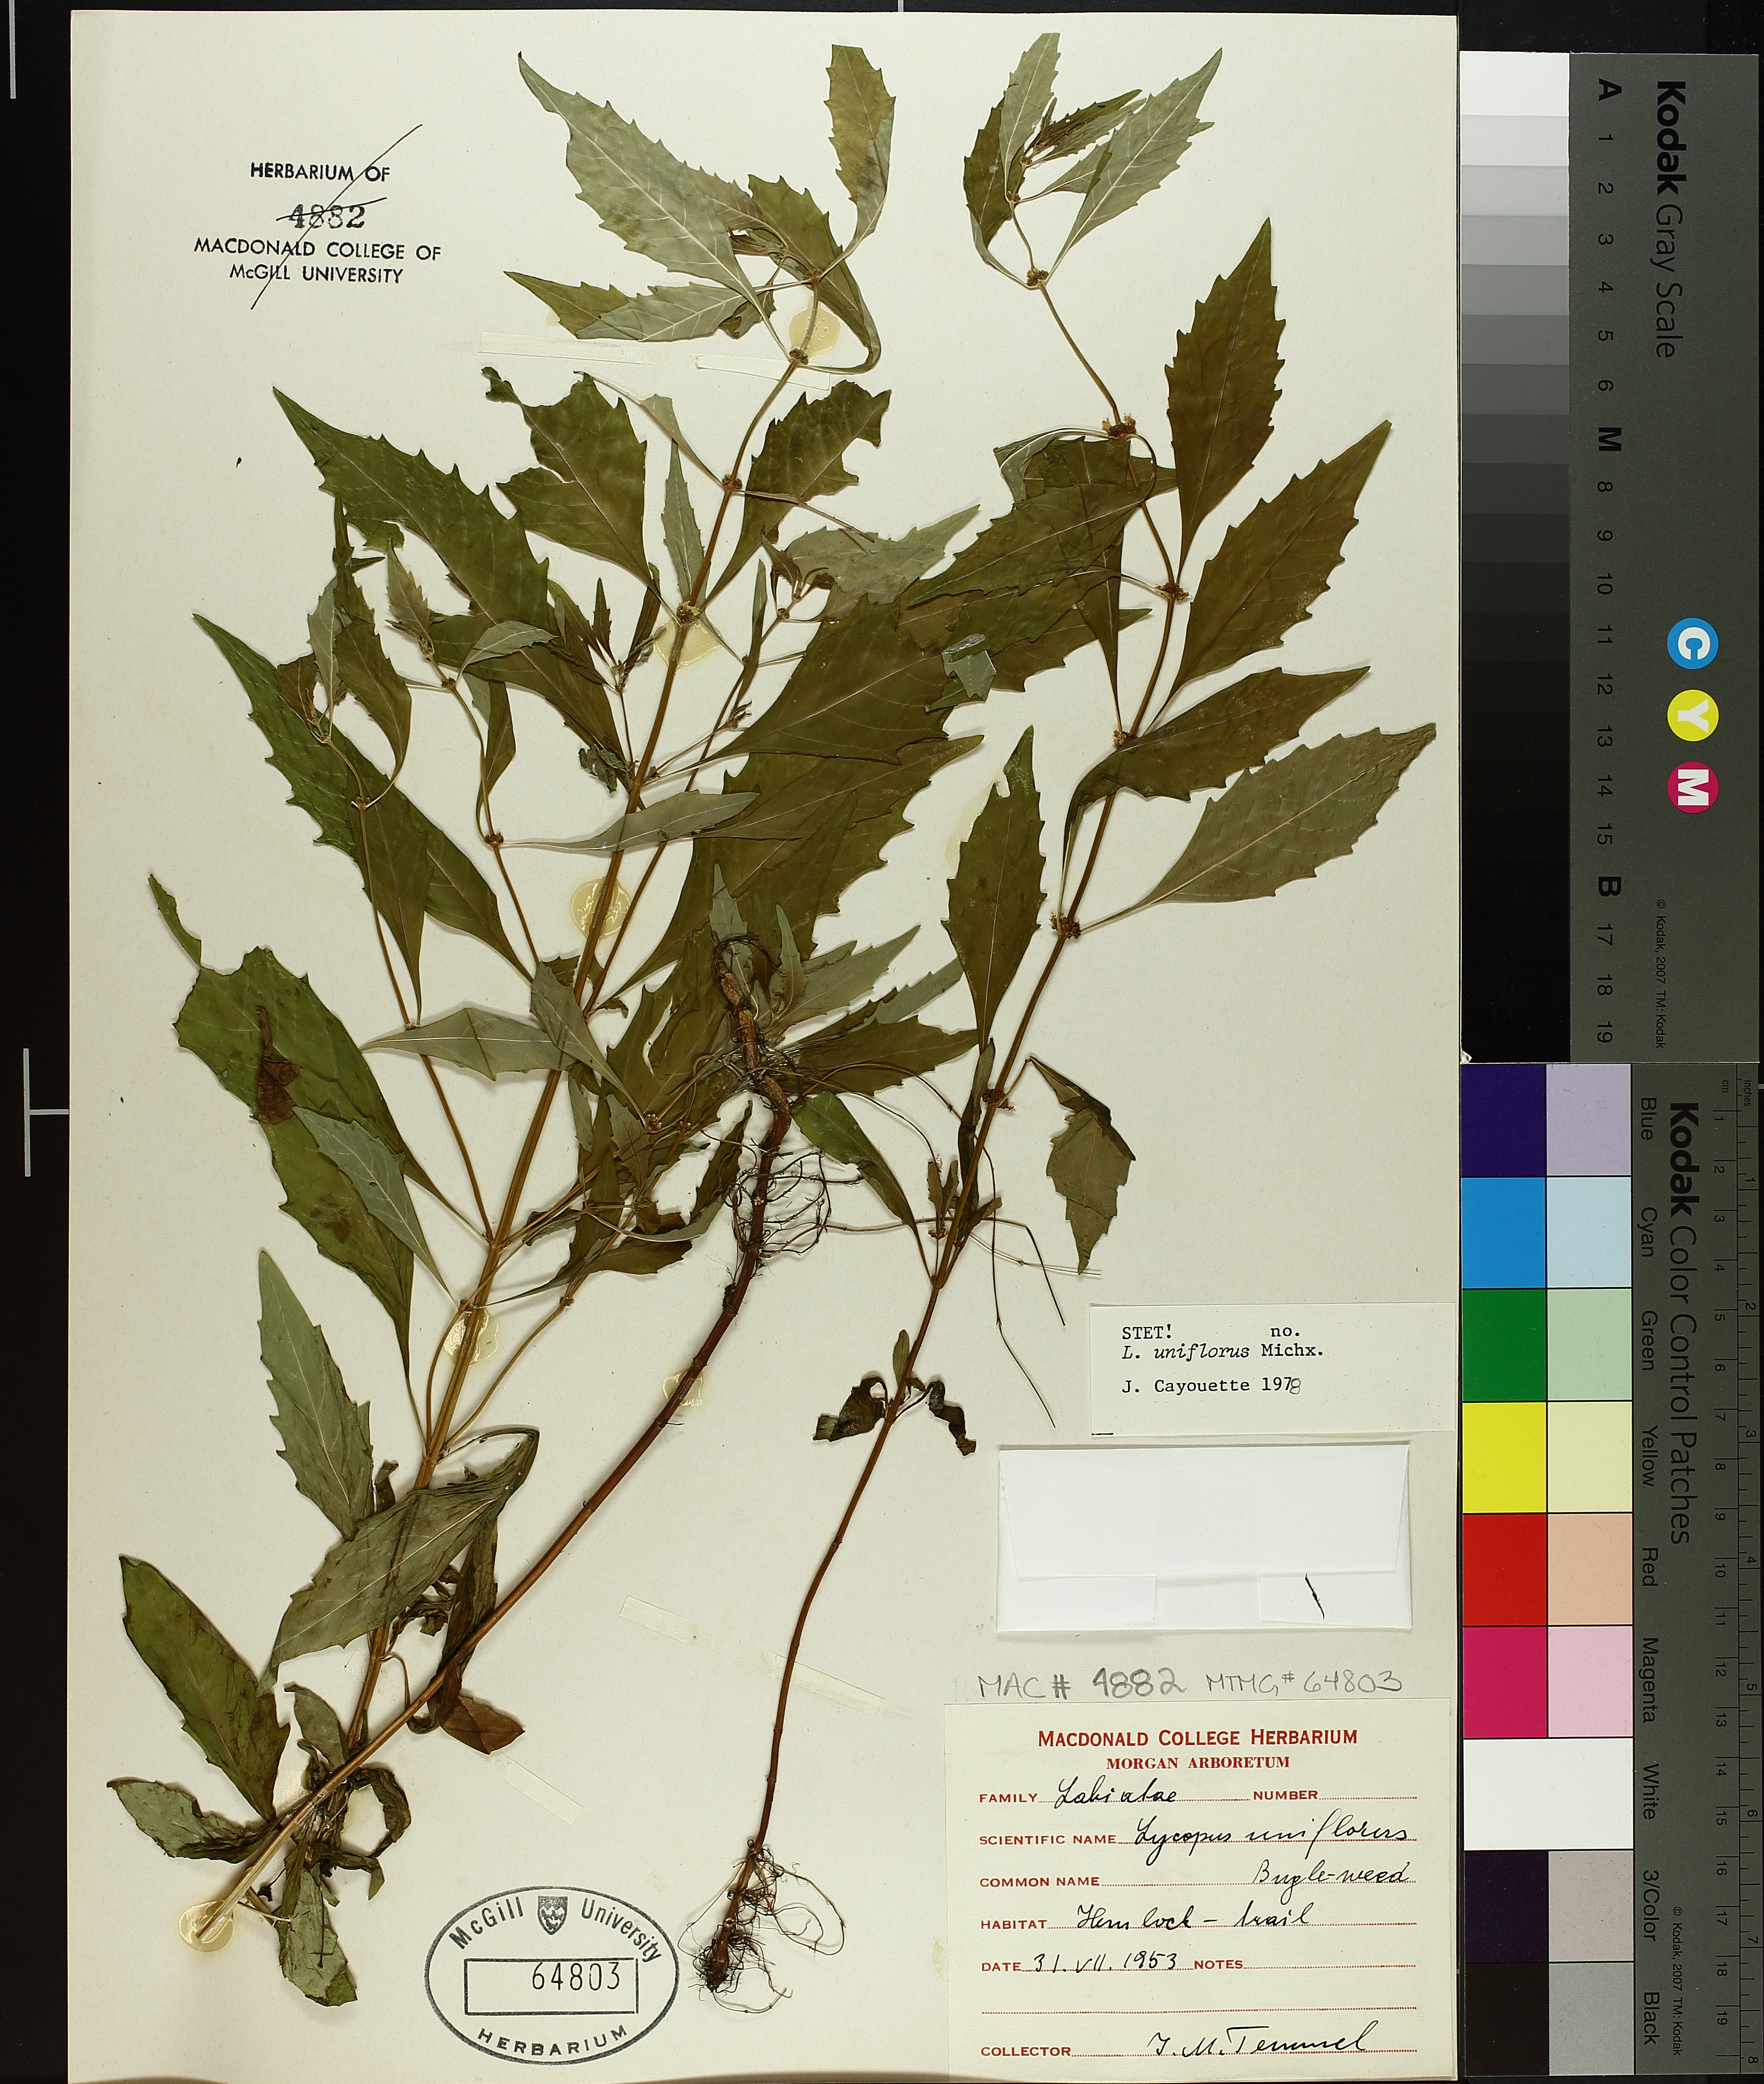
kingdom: Plantae
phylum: Tracheophyta
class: Magnoliopsida
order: Lamiales
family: Lamiaceae
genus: Lycopus
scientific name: Lycopus uniflorus
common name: Northern bugleweed
